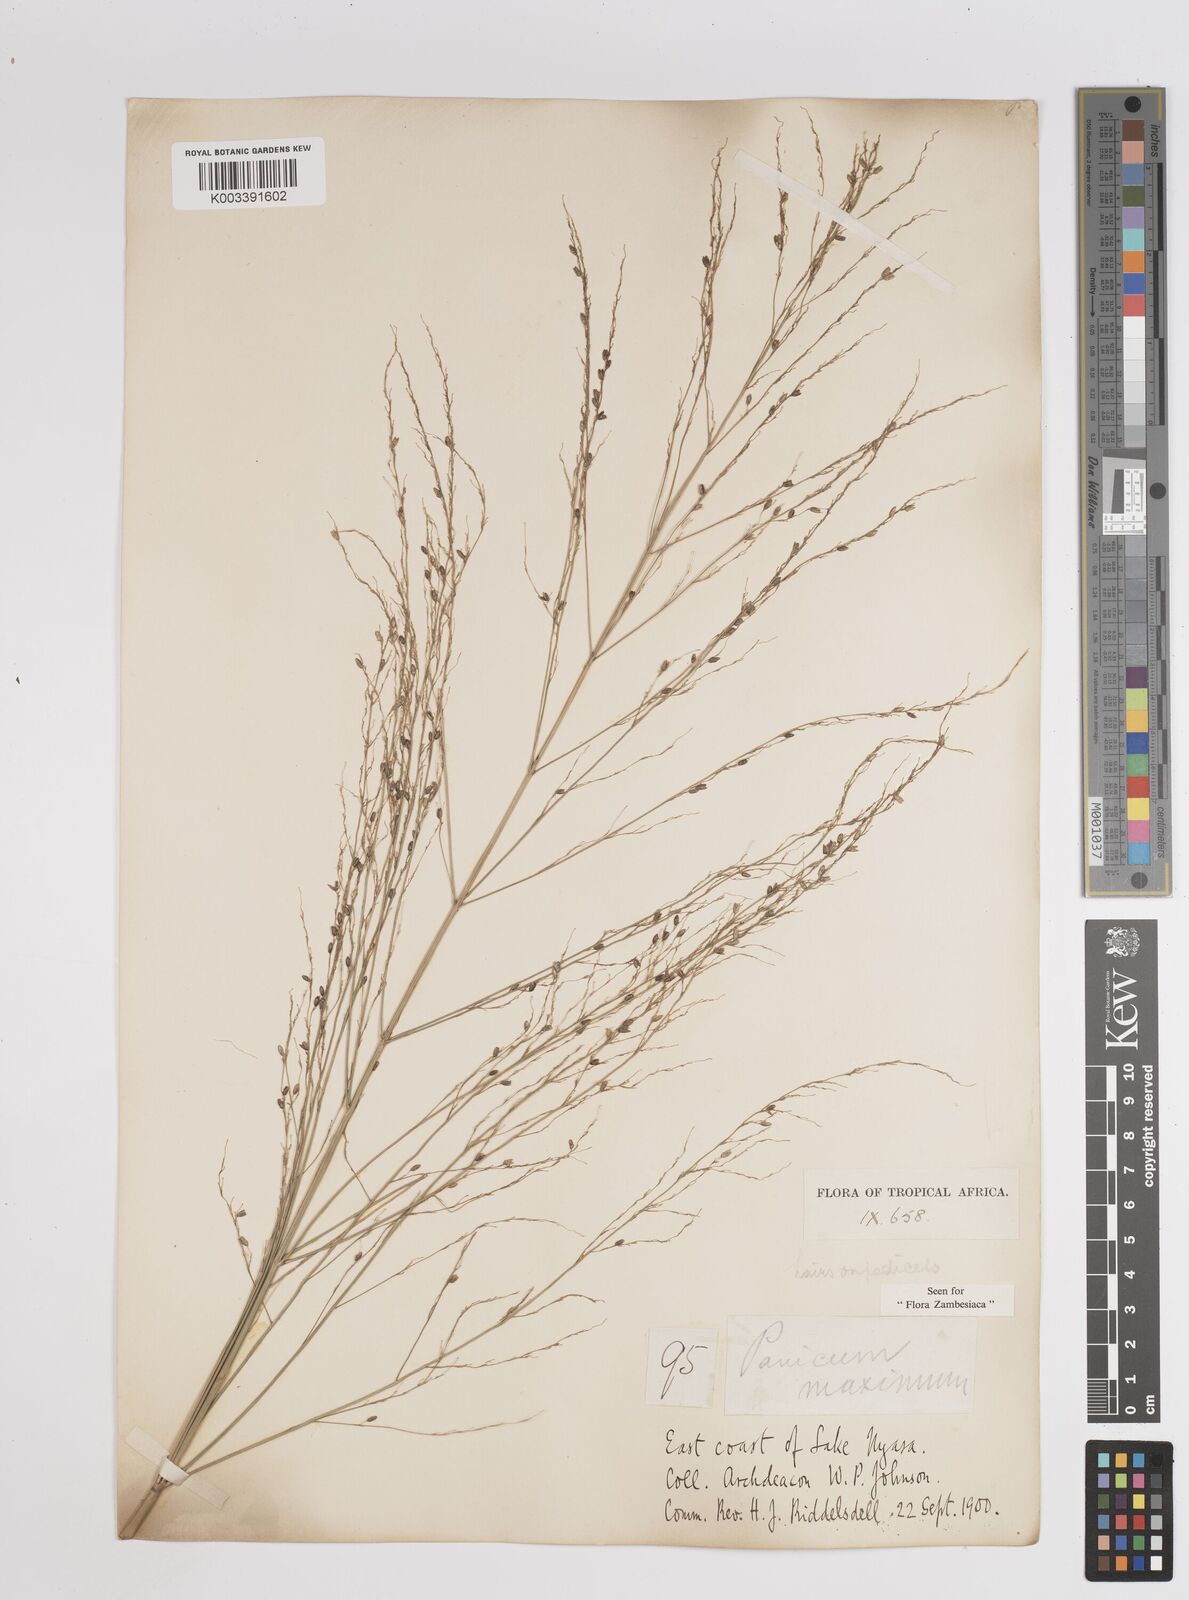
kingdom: Plantae
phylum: Tracheophyta
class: Liliopsida
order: Poales
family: Poaceae
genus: Megathyrsus
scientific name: Megathyrsus maximus
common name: Guineagrass
